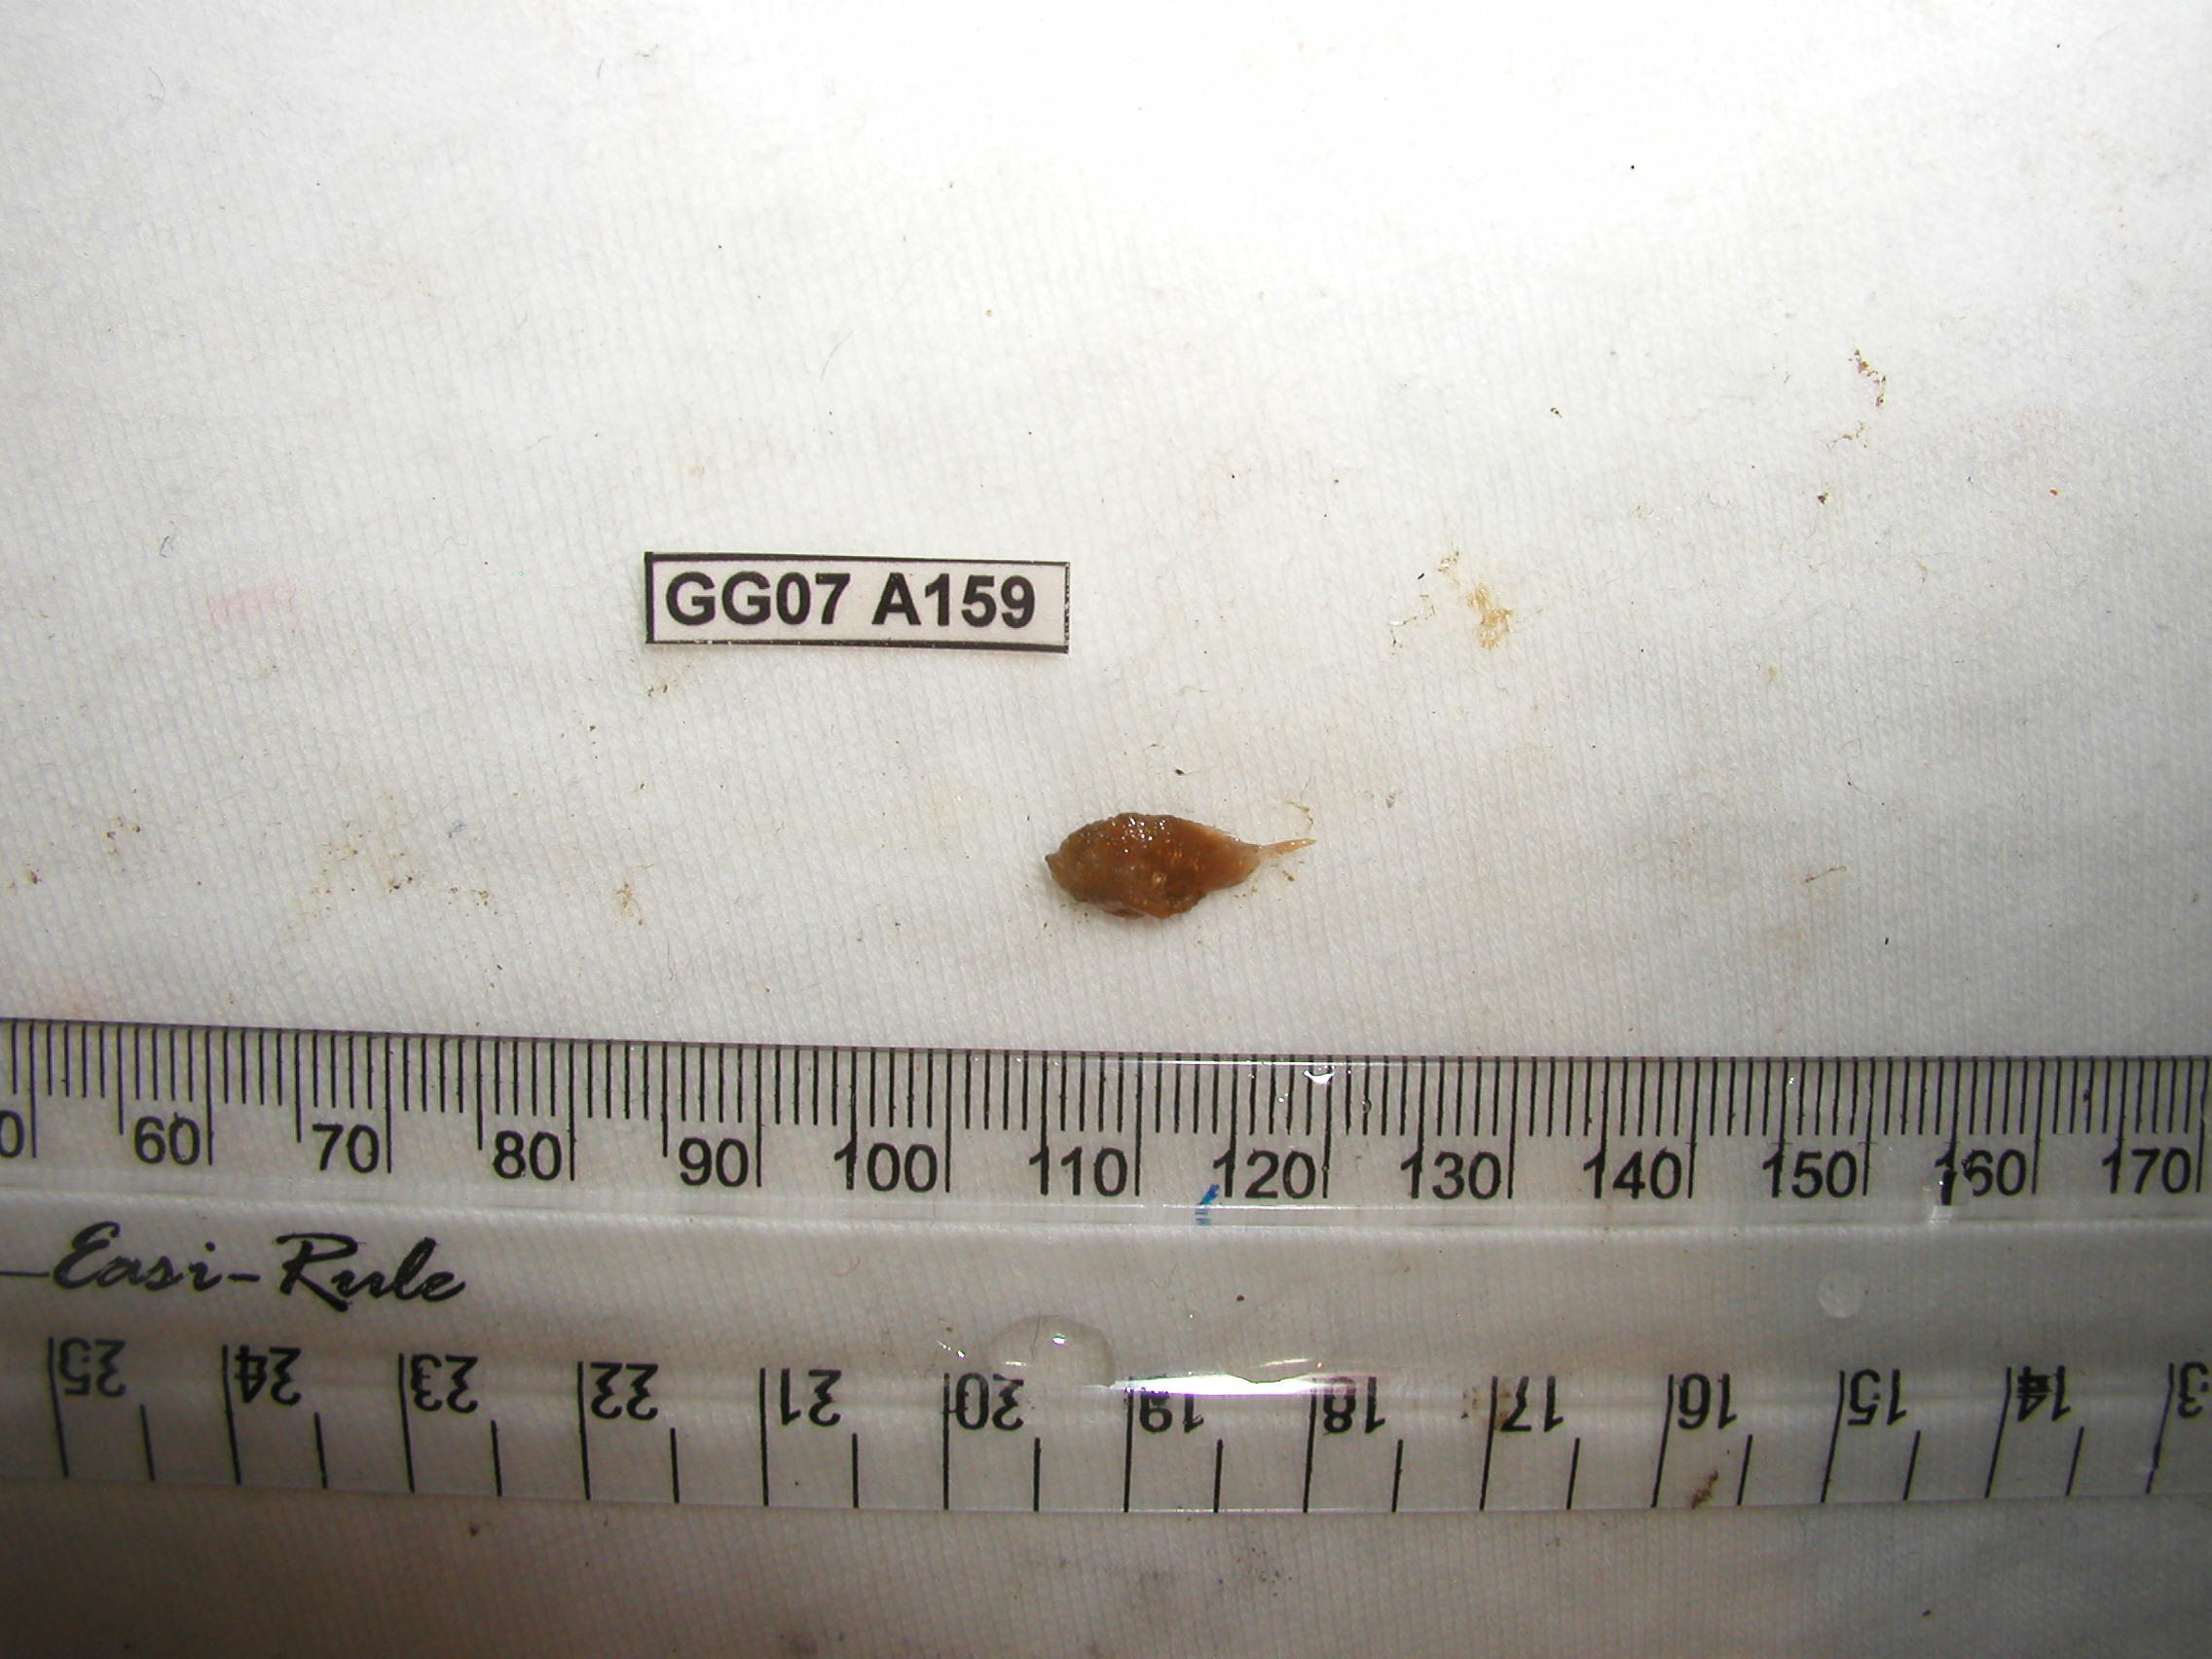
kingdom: Animalia
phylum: Chordata
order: Lophiiformes
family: Antennariidae
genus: Antennatus
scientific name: Antennatus coccineus
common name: Scarlet frogfish
